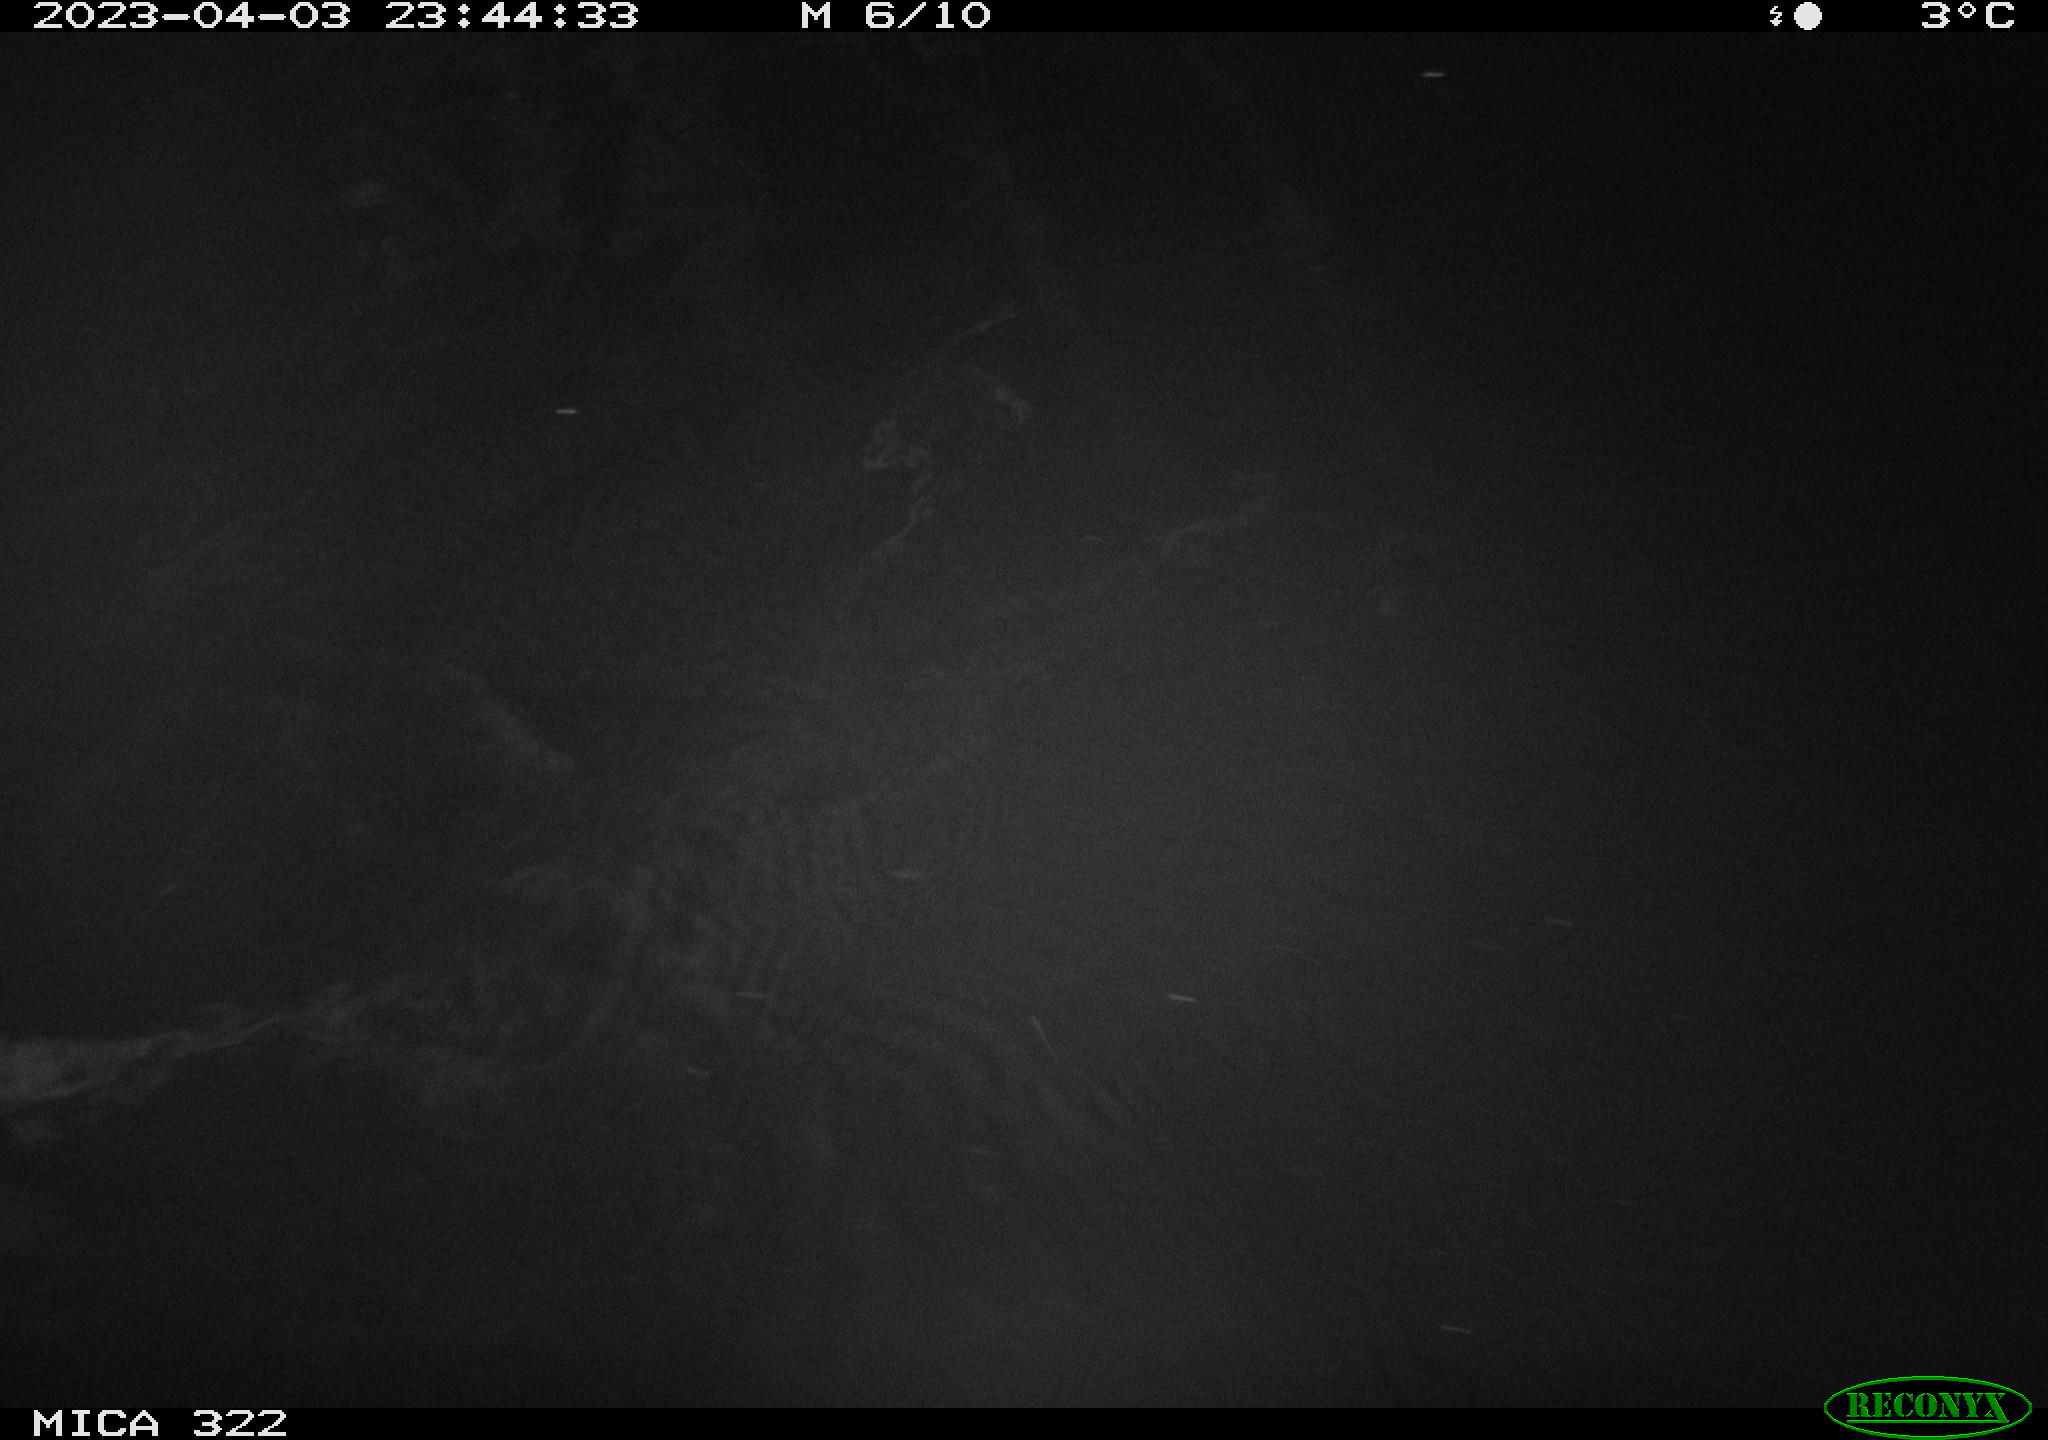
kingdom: Animalia
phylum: Chordata
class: Mammalia
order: Rodentia
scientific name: Rodentia
